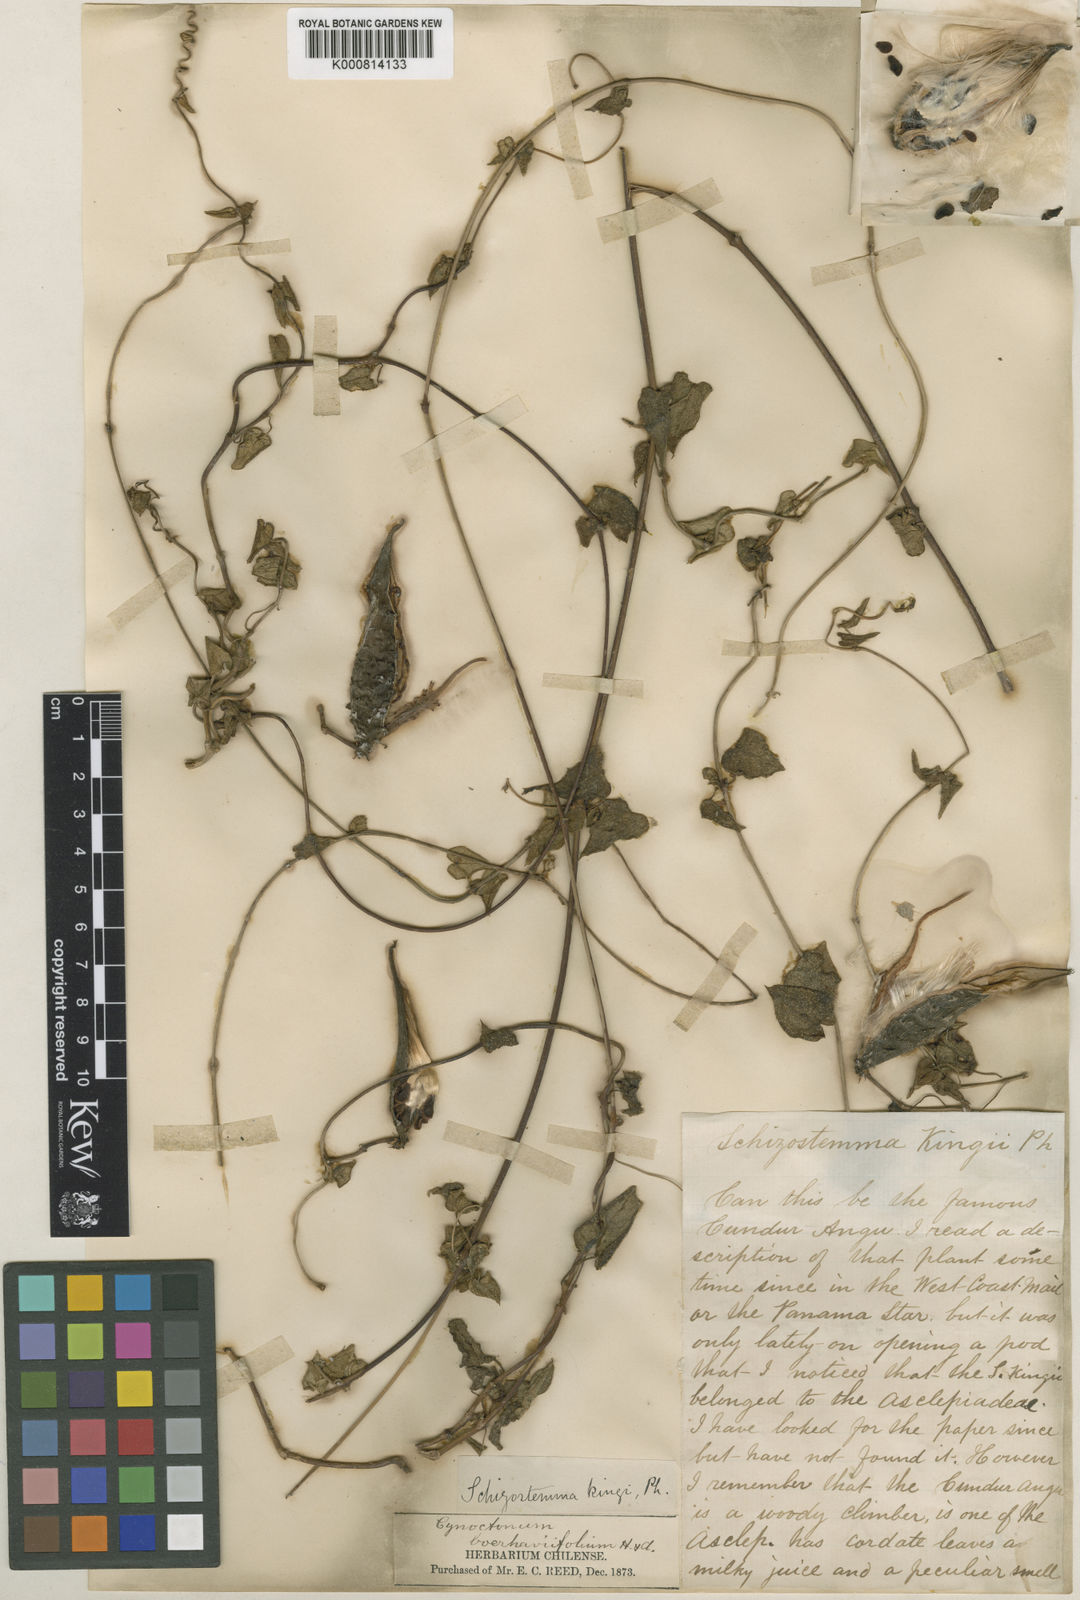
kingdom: Plantae
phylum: Tracheophyta
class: Magnoliopsida
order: Gentianales
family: Apocynaceae
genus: Diplolepis
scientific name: Diplolepis boerhaviifolia
